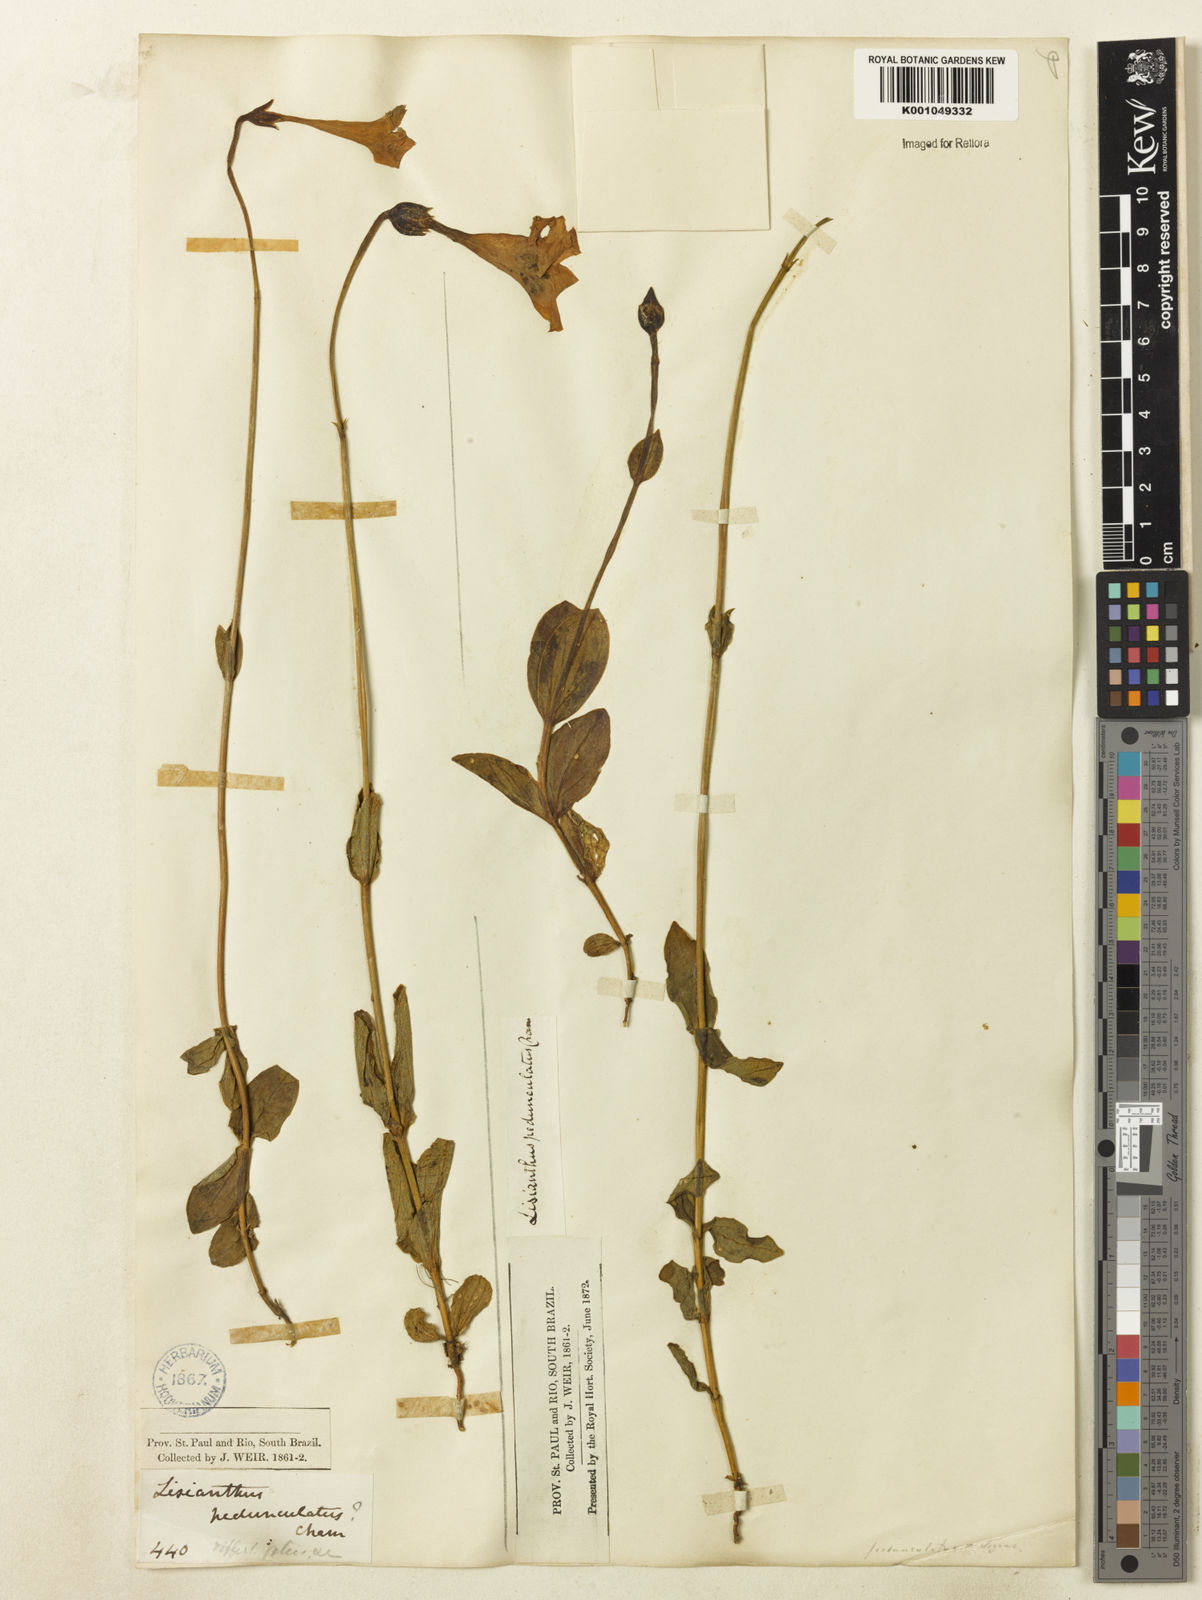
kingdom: Plantae
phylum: Tracheophyta
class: Magnoliopsida
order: Gentianales
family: Gentianaceae
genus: Calolisianthus
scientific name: Calolisianthus
